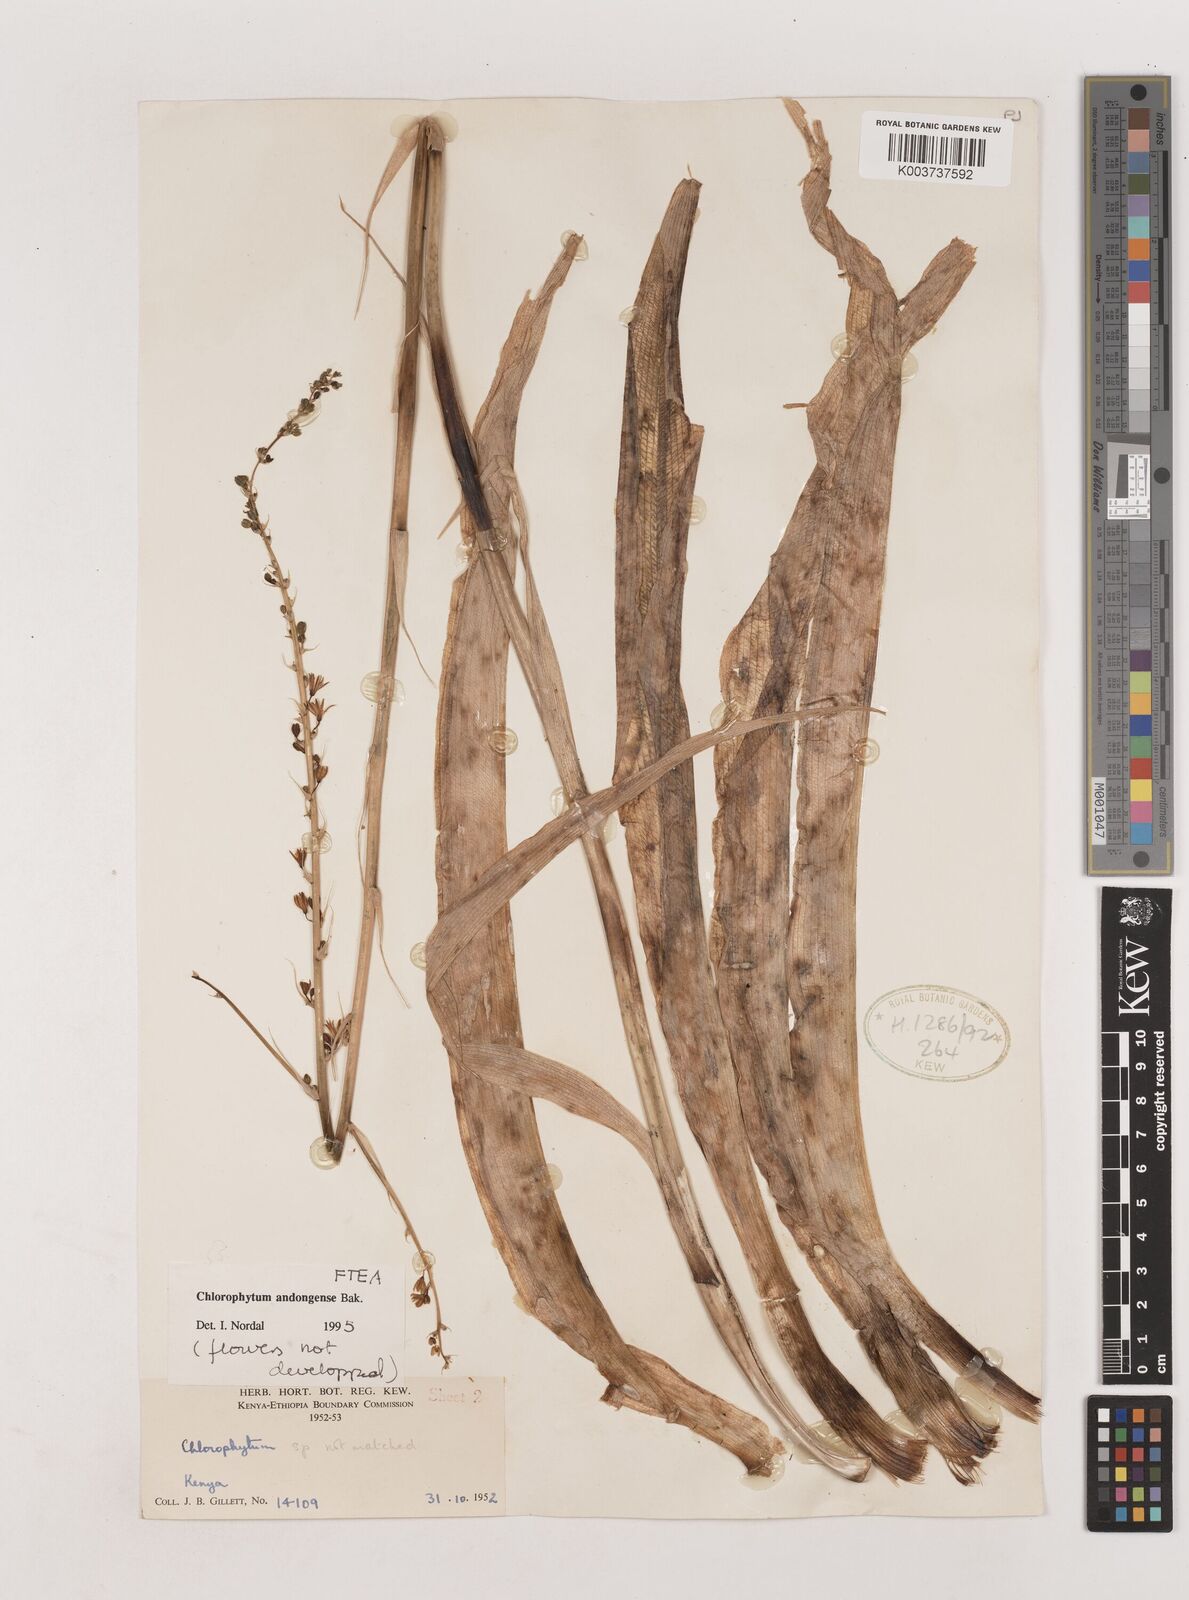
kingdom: Plantae
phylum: Tracheophyta
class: Liliopsida
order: Asparagales
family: Asparagaceae
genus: Chlorophytum
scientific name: Chlorophytum andongense
